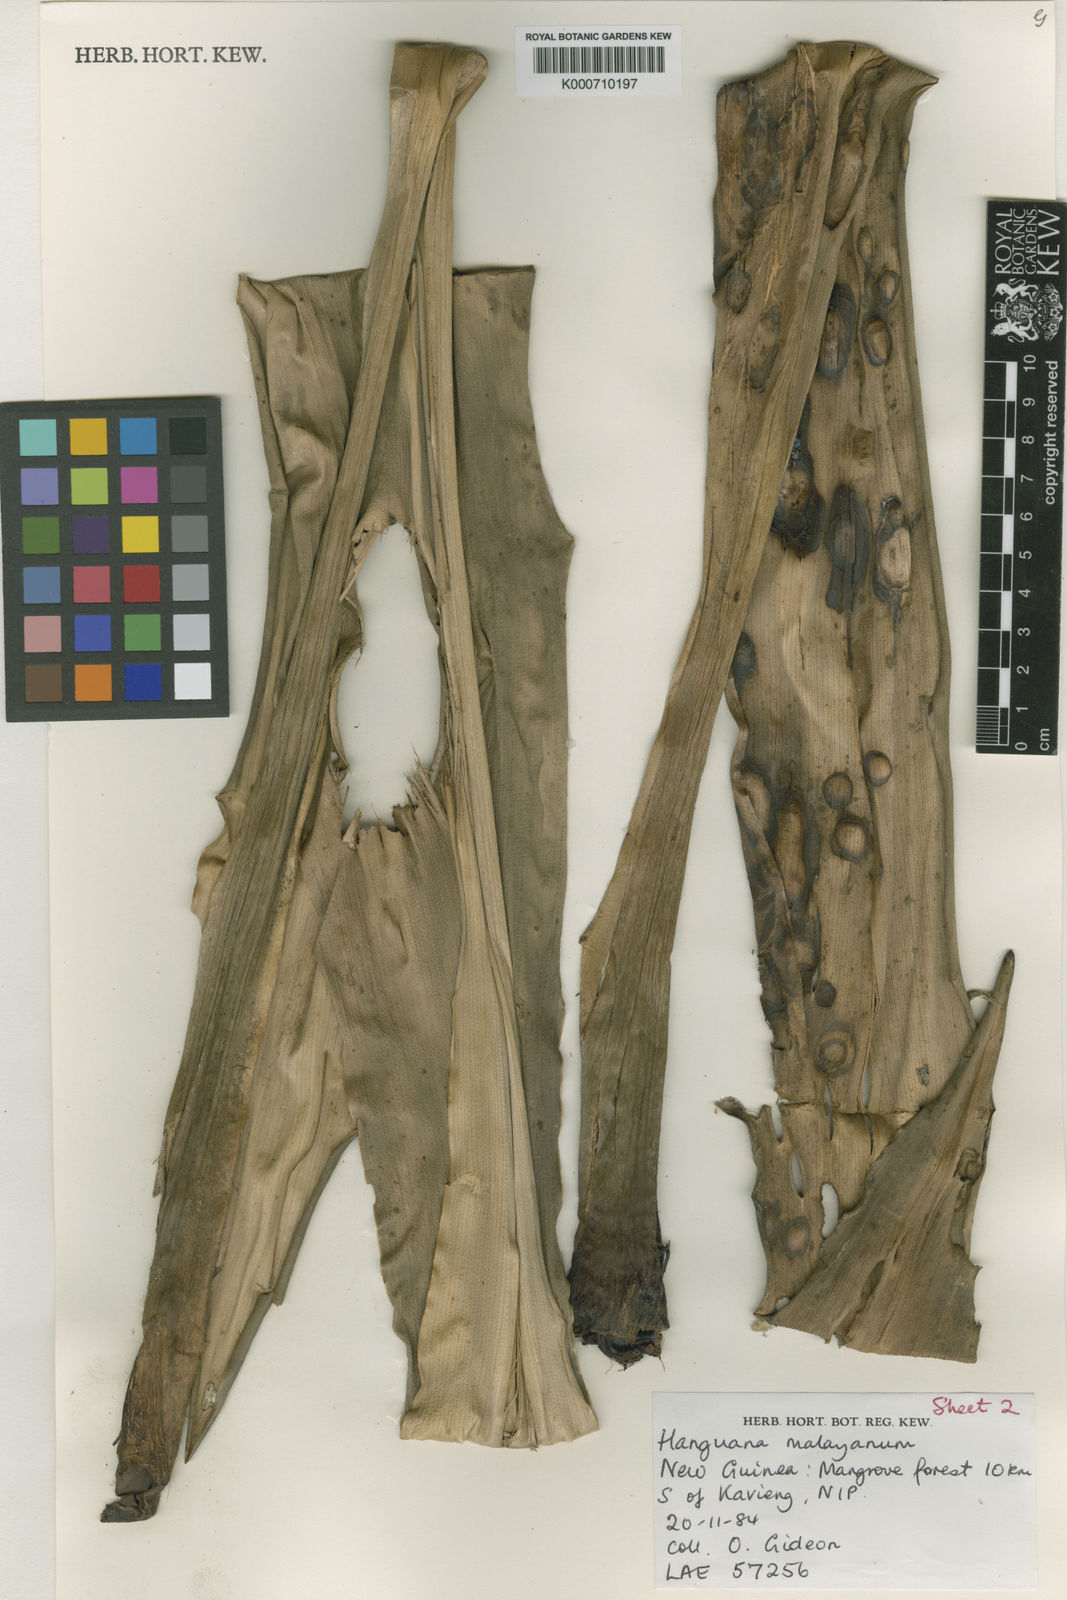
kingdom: Plantae
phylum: Tracheophyta
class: Liliopsida
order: Commelinales
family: Hanguanaceae
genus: Hanguana
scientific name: Hanguana malayana
